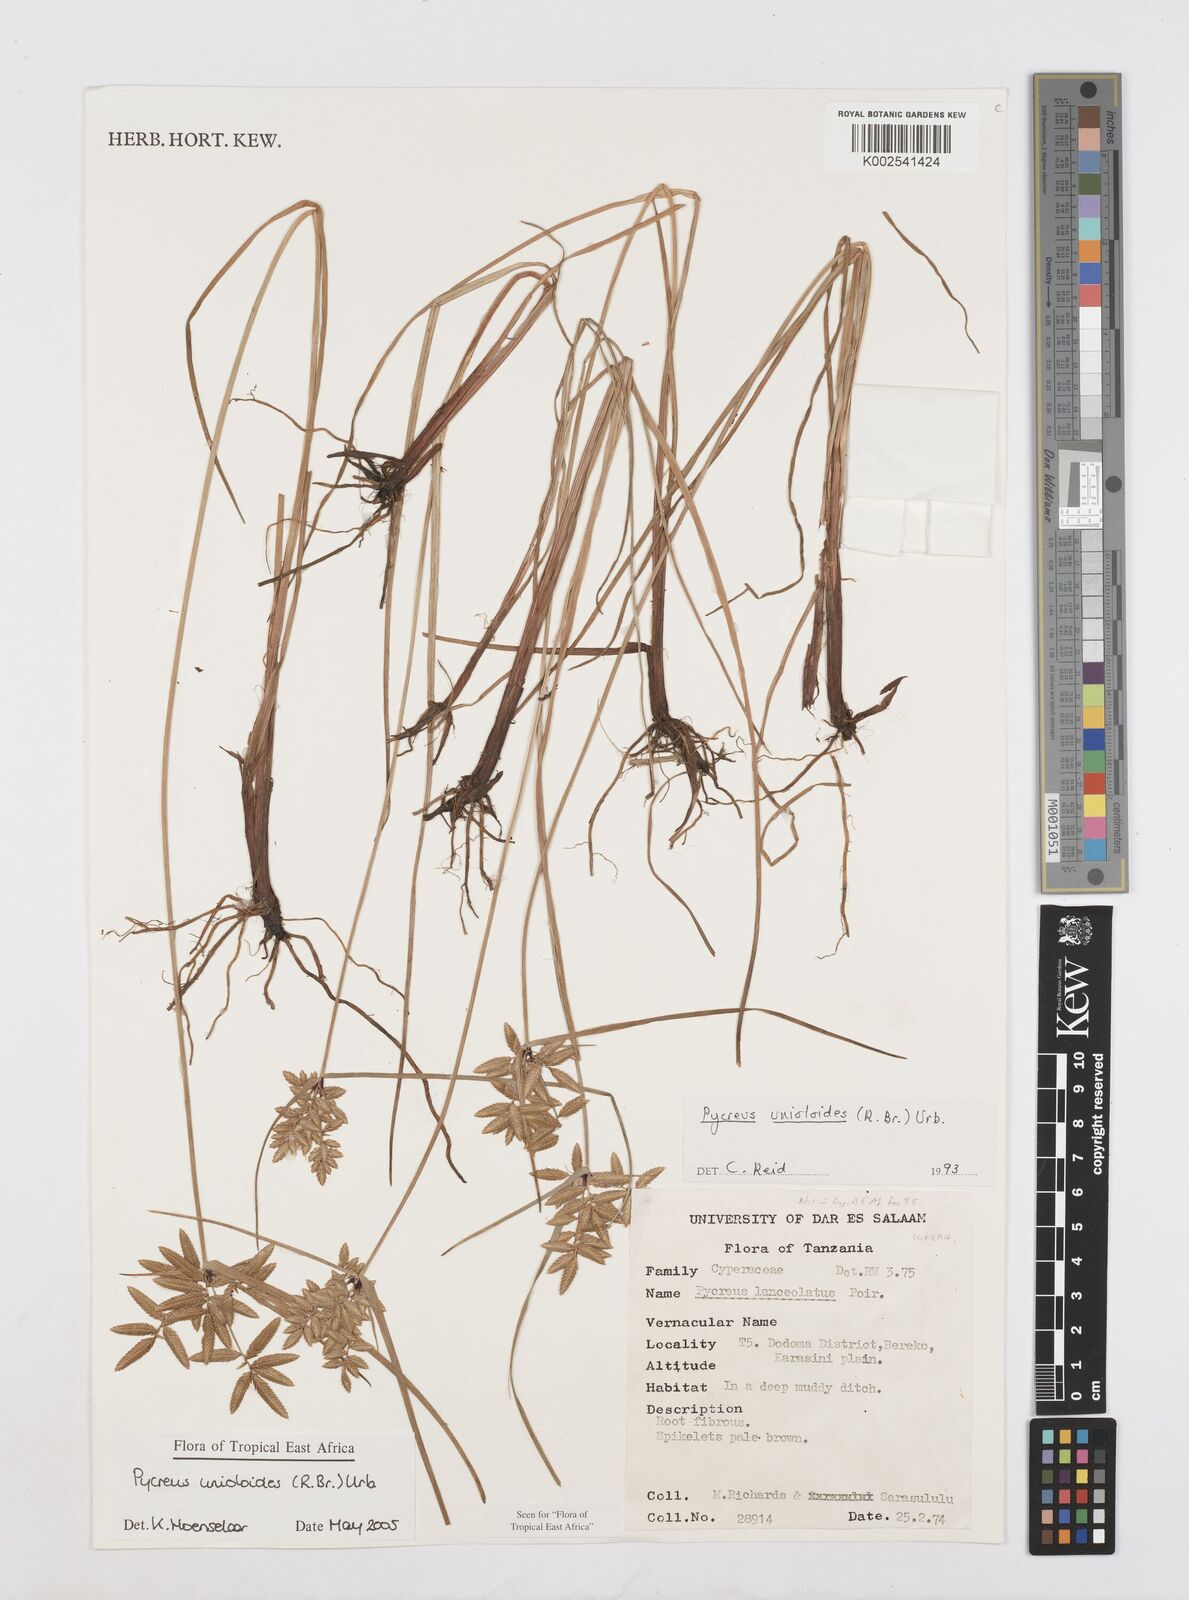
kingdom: Plantae
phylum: Tracheophyta
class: Liliopsida
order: Poales
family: Cyperaceae
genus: Cyperus
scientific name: Cyperus unioloides
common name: Uniola flatsedge
